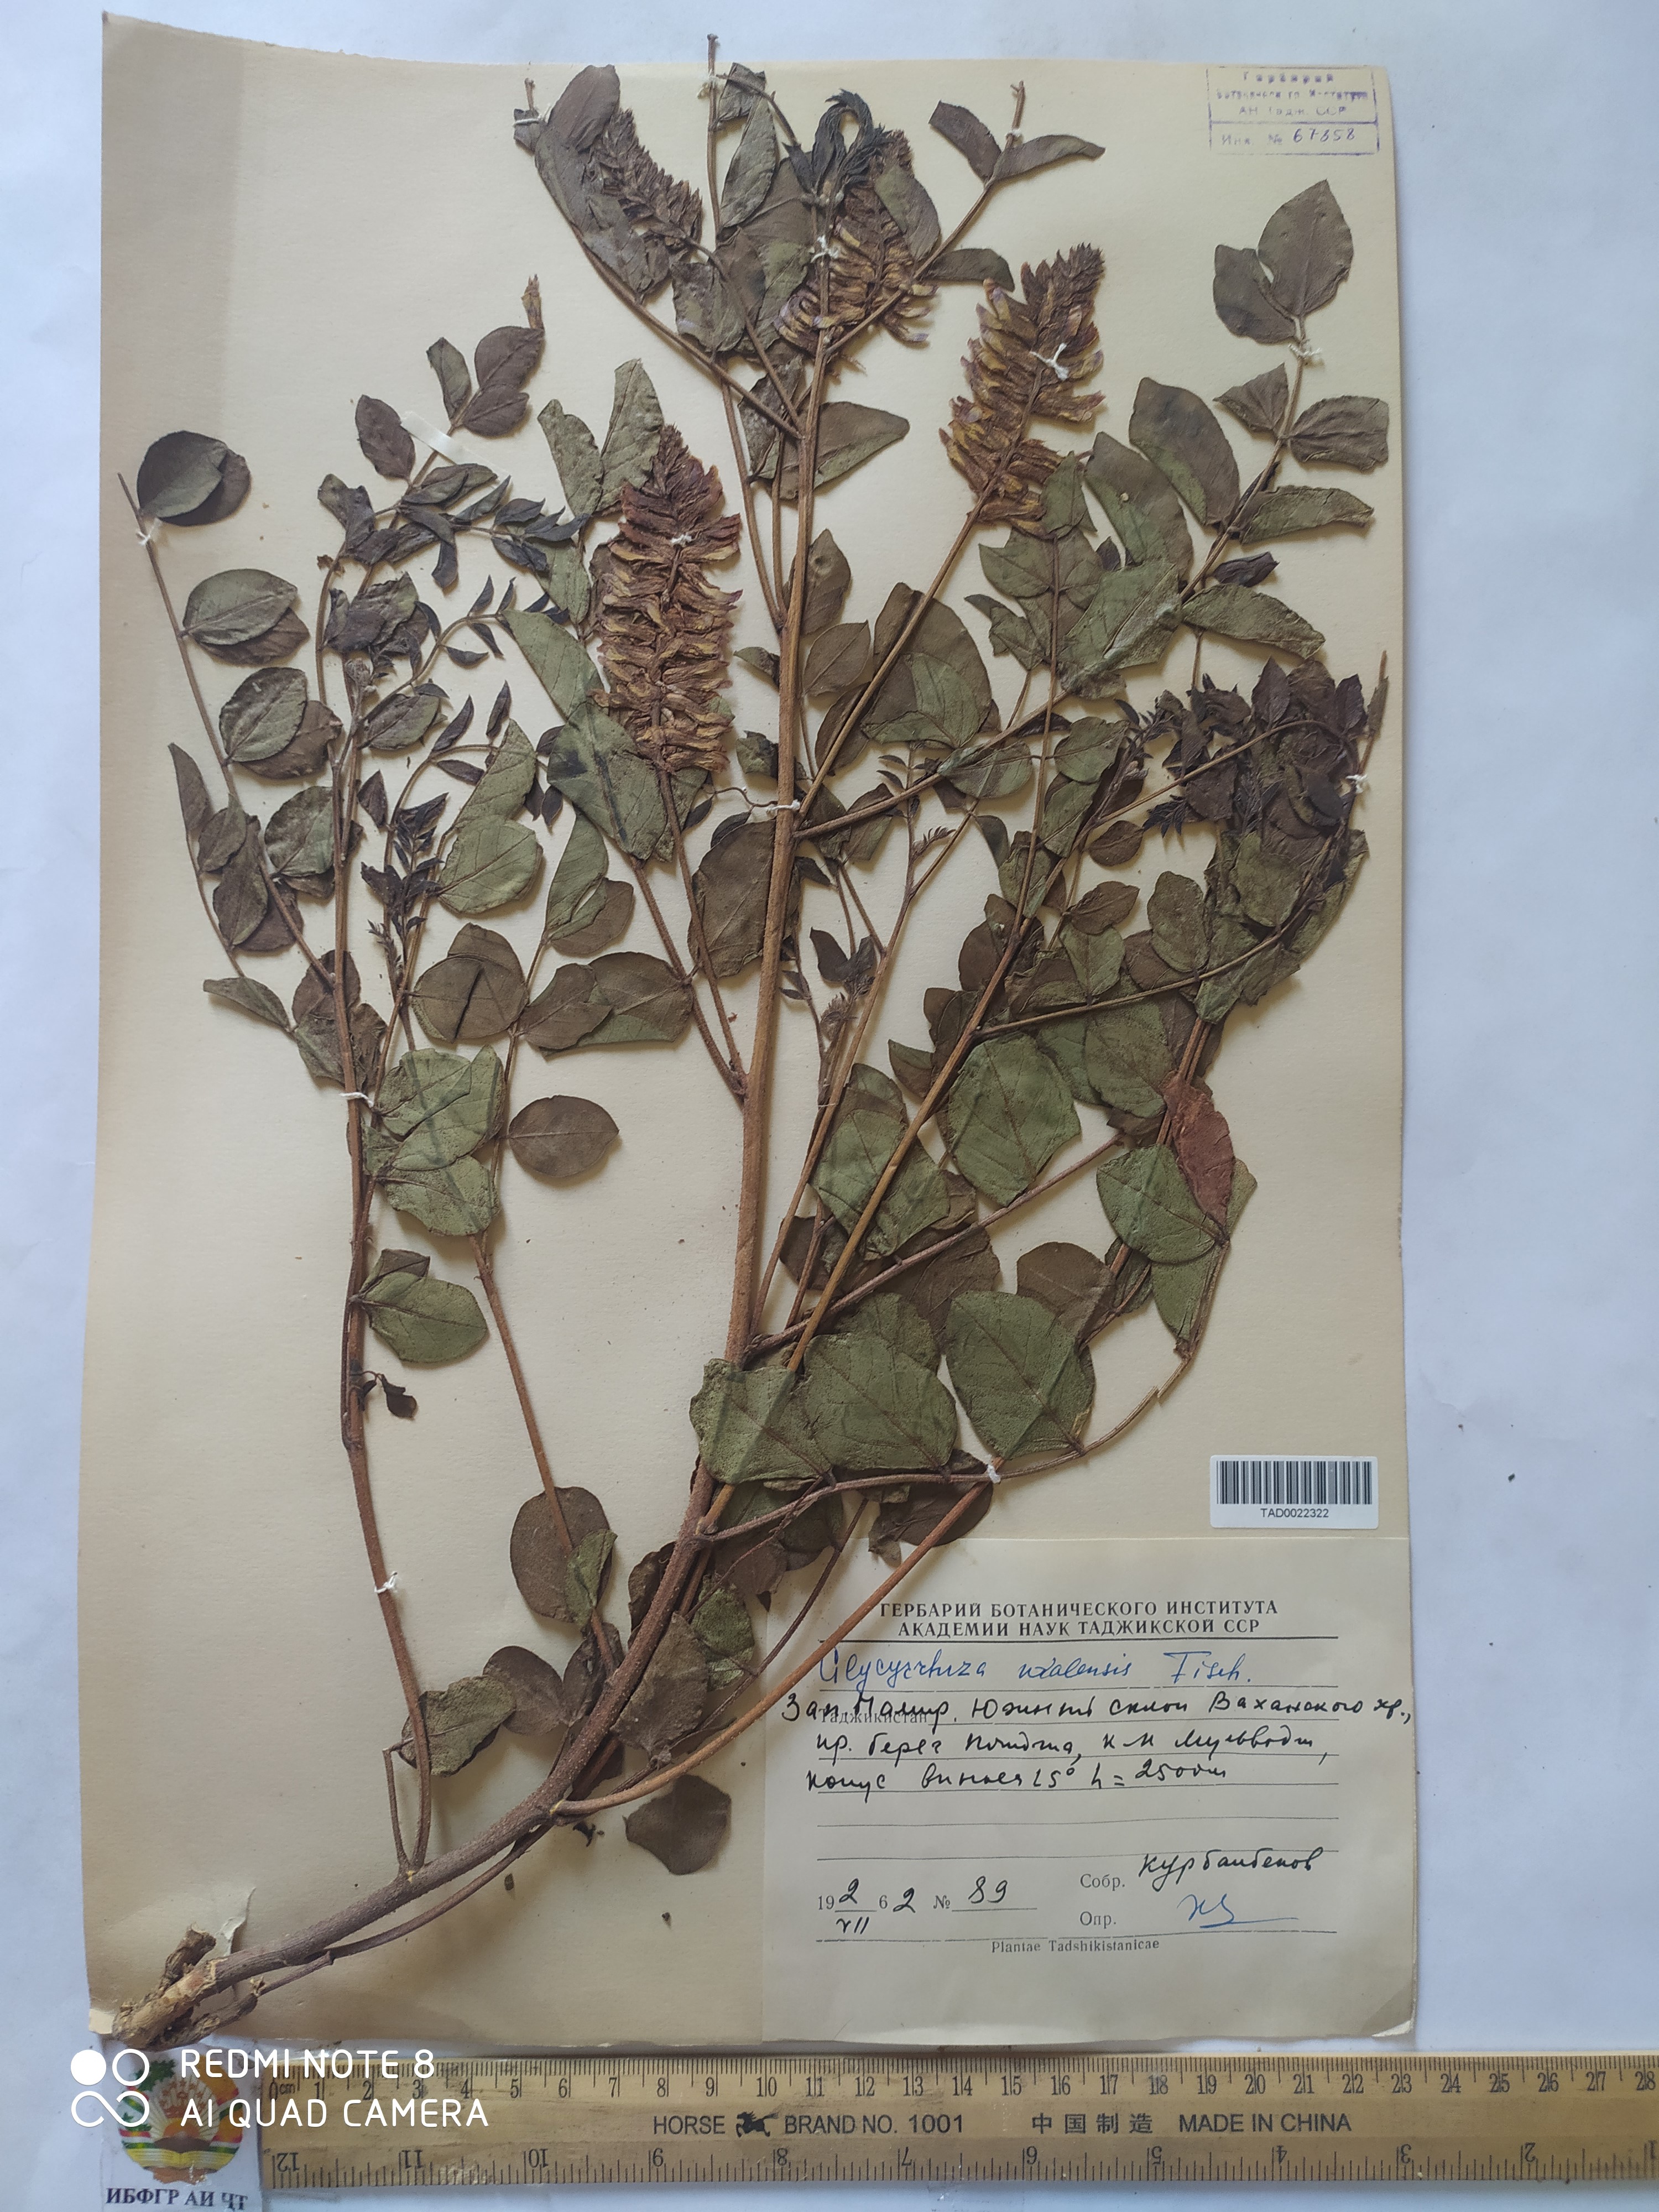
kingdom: Plantae
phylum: Tracheophyta
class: Magnoliopsida
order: Fabales
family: Fabaceae
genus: Glycyrrhiza
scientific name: Glycyrrhiza uralensis
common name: Chinese licorice
